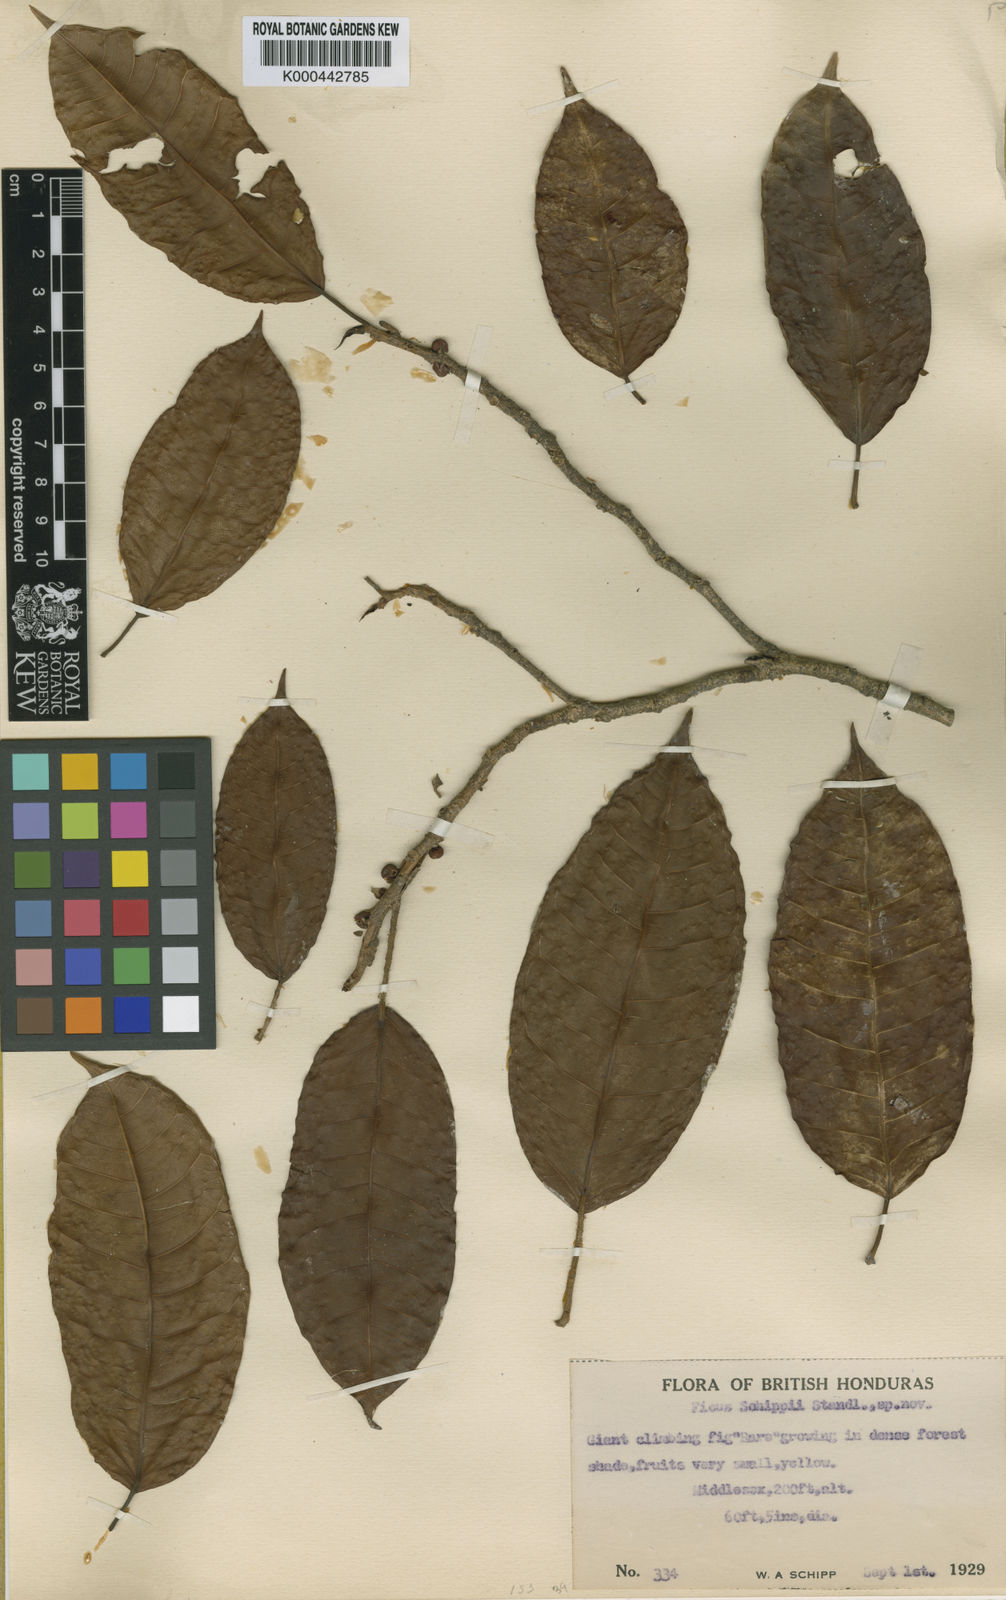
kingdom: Plantae
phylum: Tracheophyta
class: Magnoliopsida
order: Rosales
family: Moraceae
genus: Ficus
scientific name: Ficus schippii
